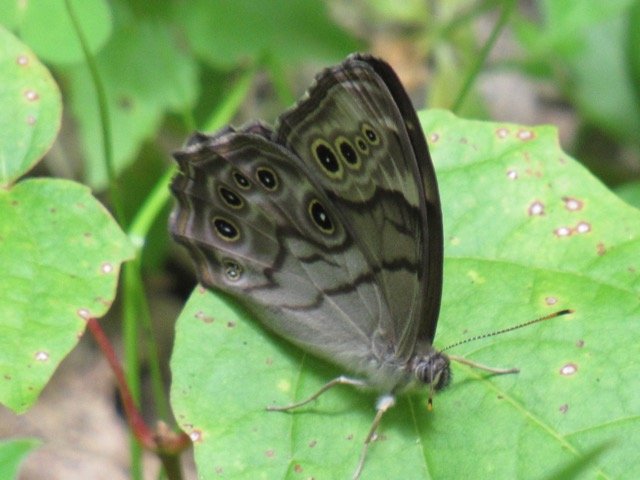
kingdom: Animalia
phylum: Arthropoda
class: Insecta
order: Lepidoptera
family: Nymphalidae
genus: Lethe
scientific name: Lethe anthedon
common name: Northern Pearly-Eye
